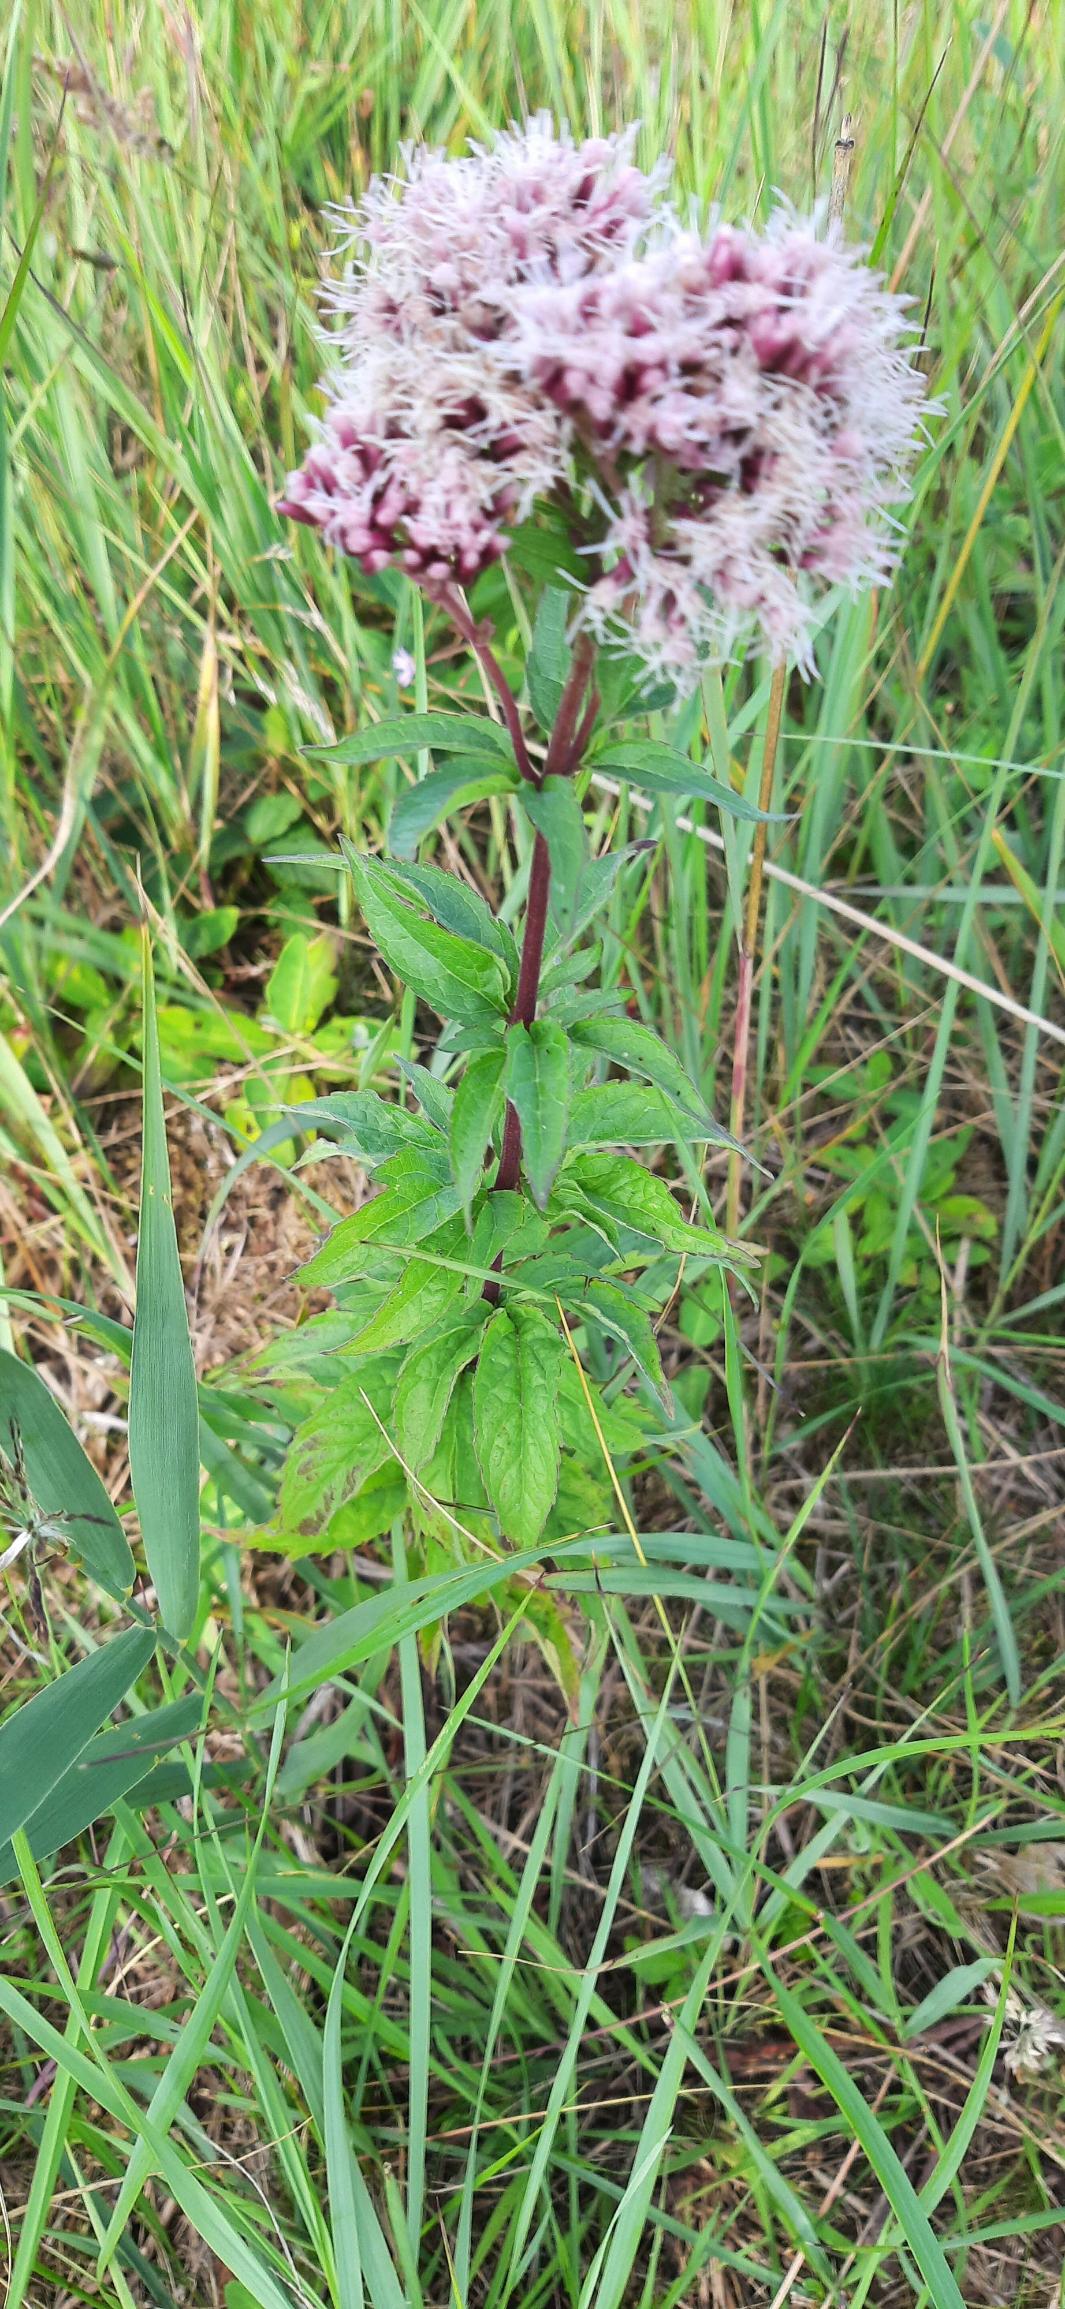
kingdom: Plantae
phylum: Tracheophyta
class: Magnoliopsida
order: Asterales
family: Asteraceae
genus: Eupatorium
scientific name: Eupatorium cannabinum
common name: Hjortetrøst
